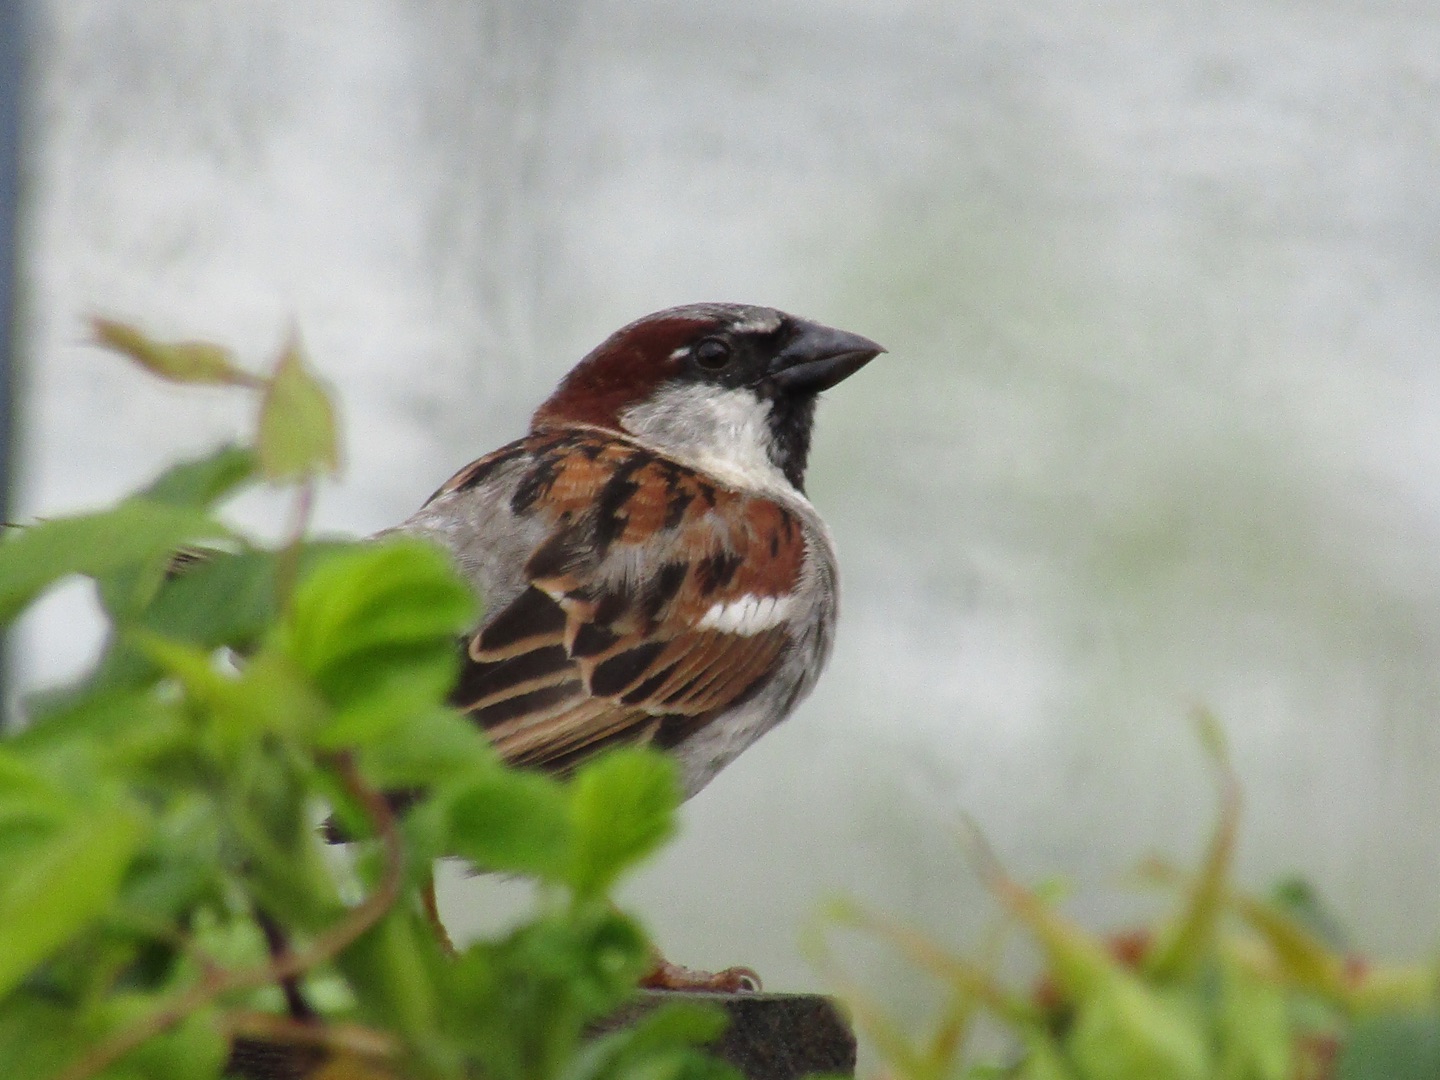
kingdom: Animalia
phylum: Chordata
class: Aves
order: Passeriformes
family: Passeridae
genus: Passer
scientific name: Passer domesticus
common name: Gråspurv
